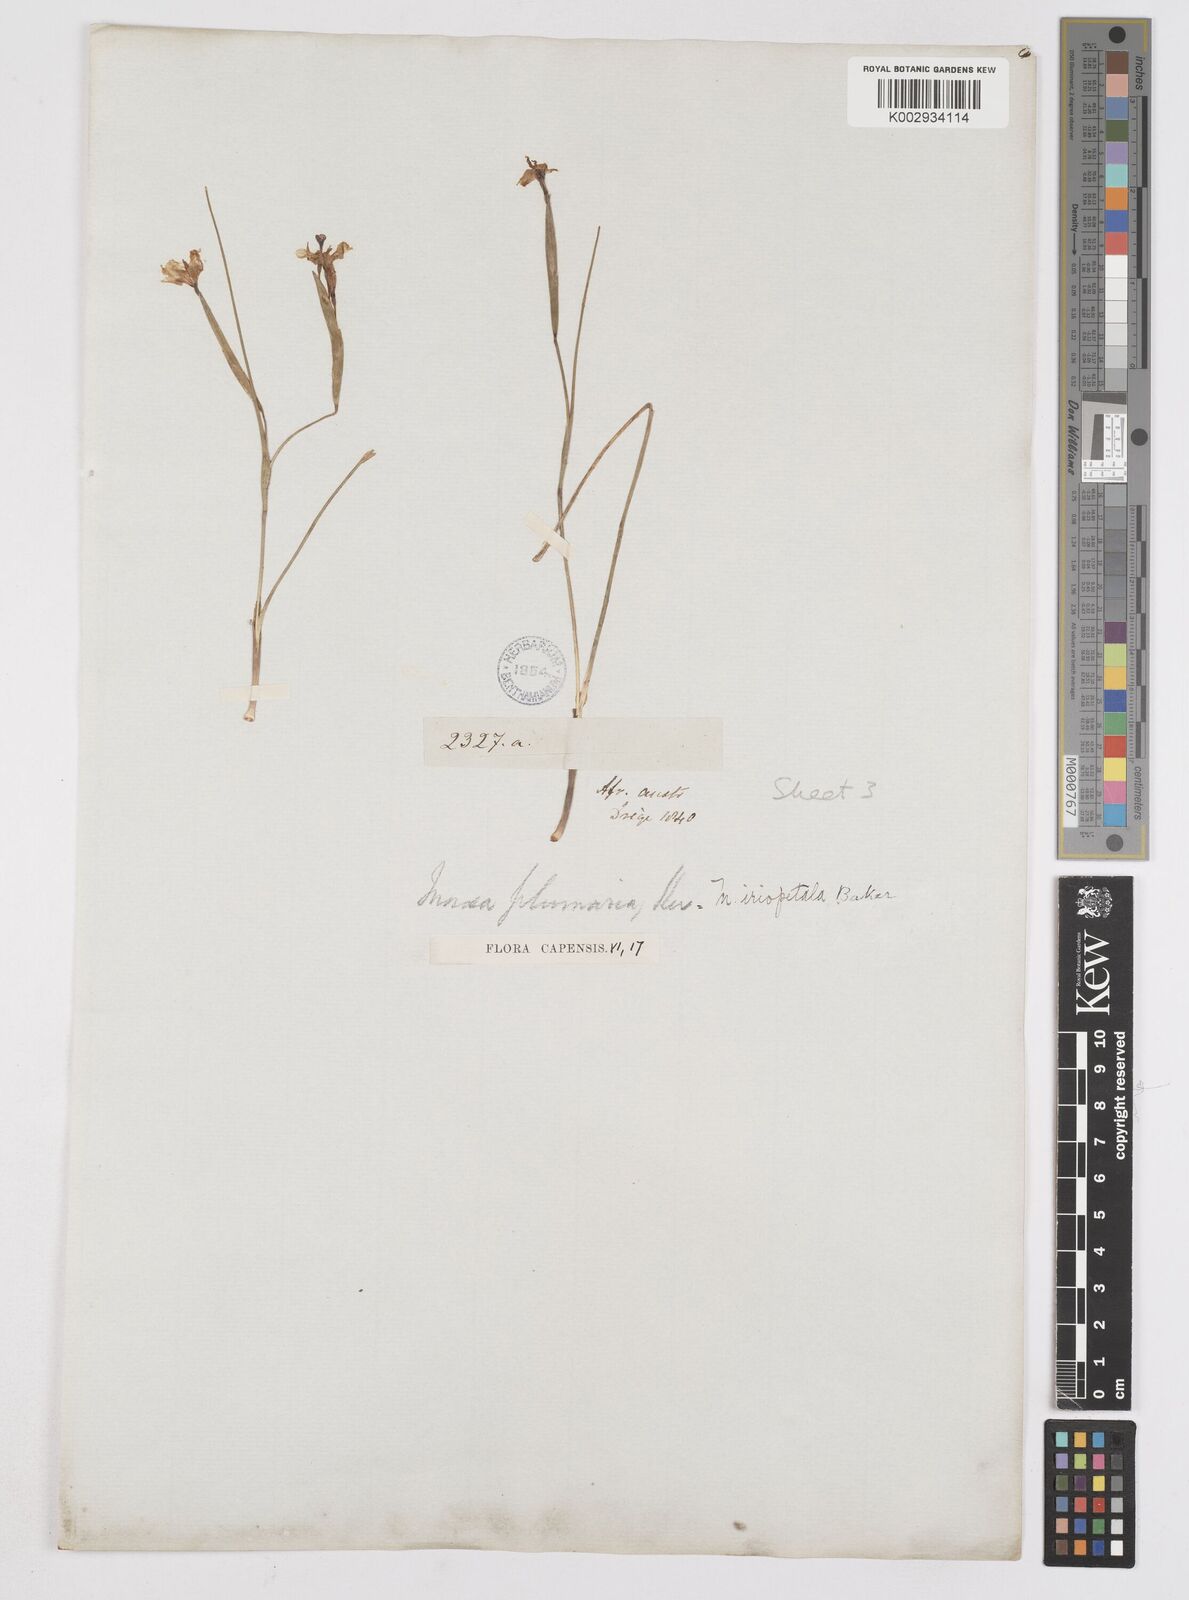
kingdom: Plantae
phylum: Tracheophyta
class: Liliopsida
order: Asparagales
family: Iridaceae
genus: Moraea
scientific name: Moraea lugubris
